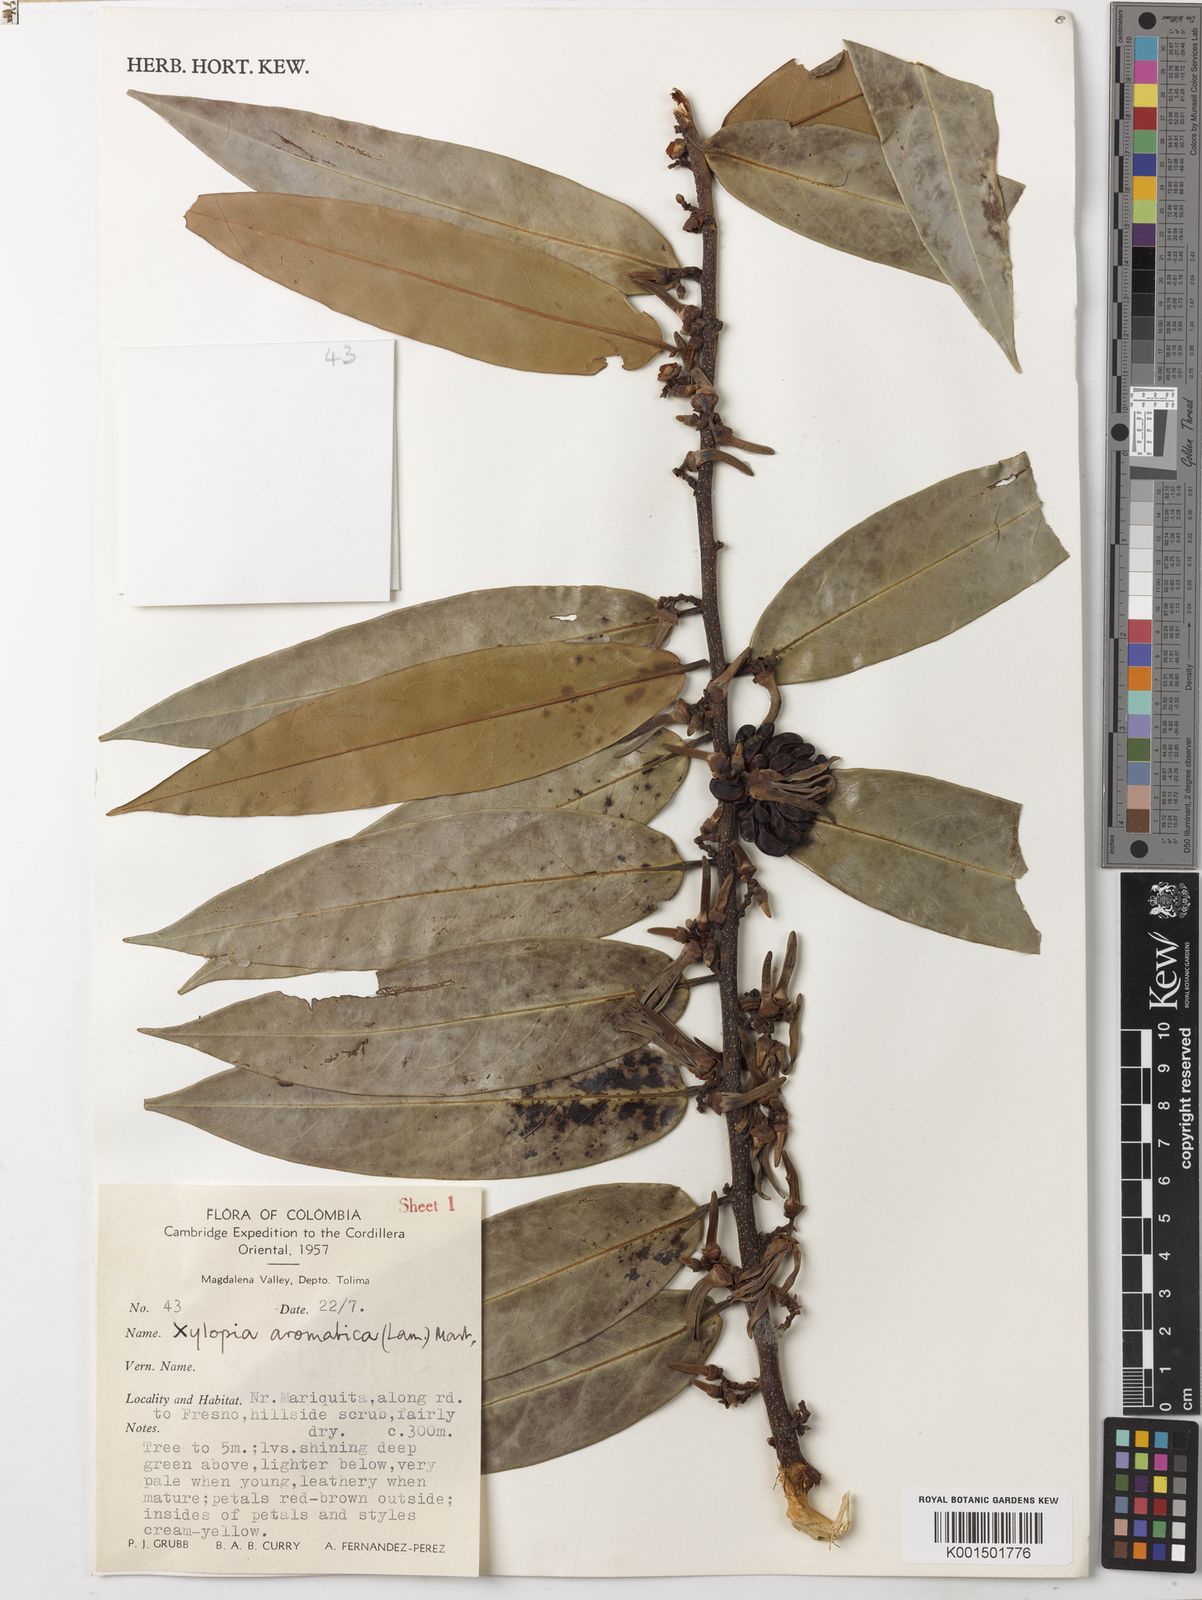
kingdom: Plantae
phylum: Tracheophyta
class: Magnoliopsida
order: Magnoliales
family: Annonaceae
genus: Xylopia
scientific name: Xylopia aromatica
